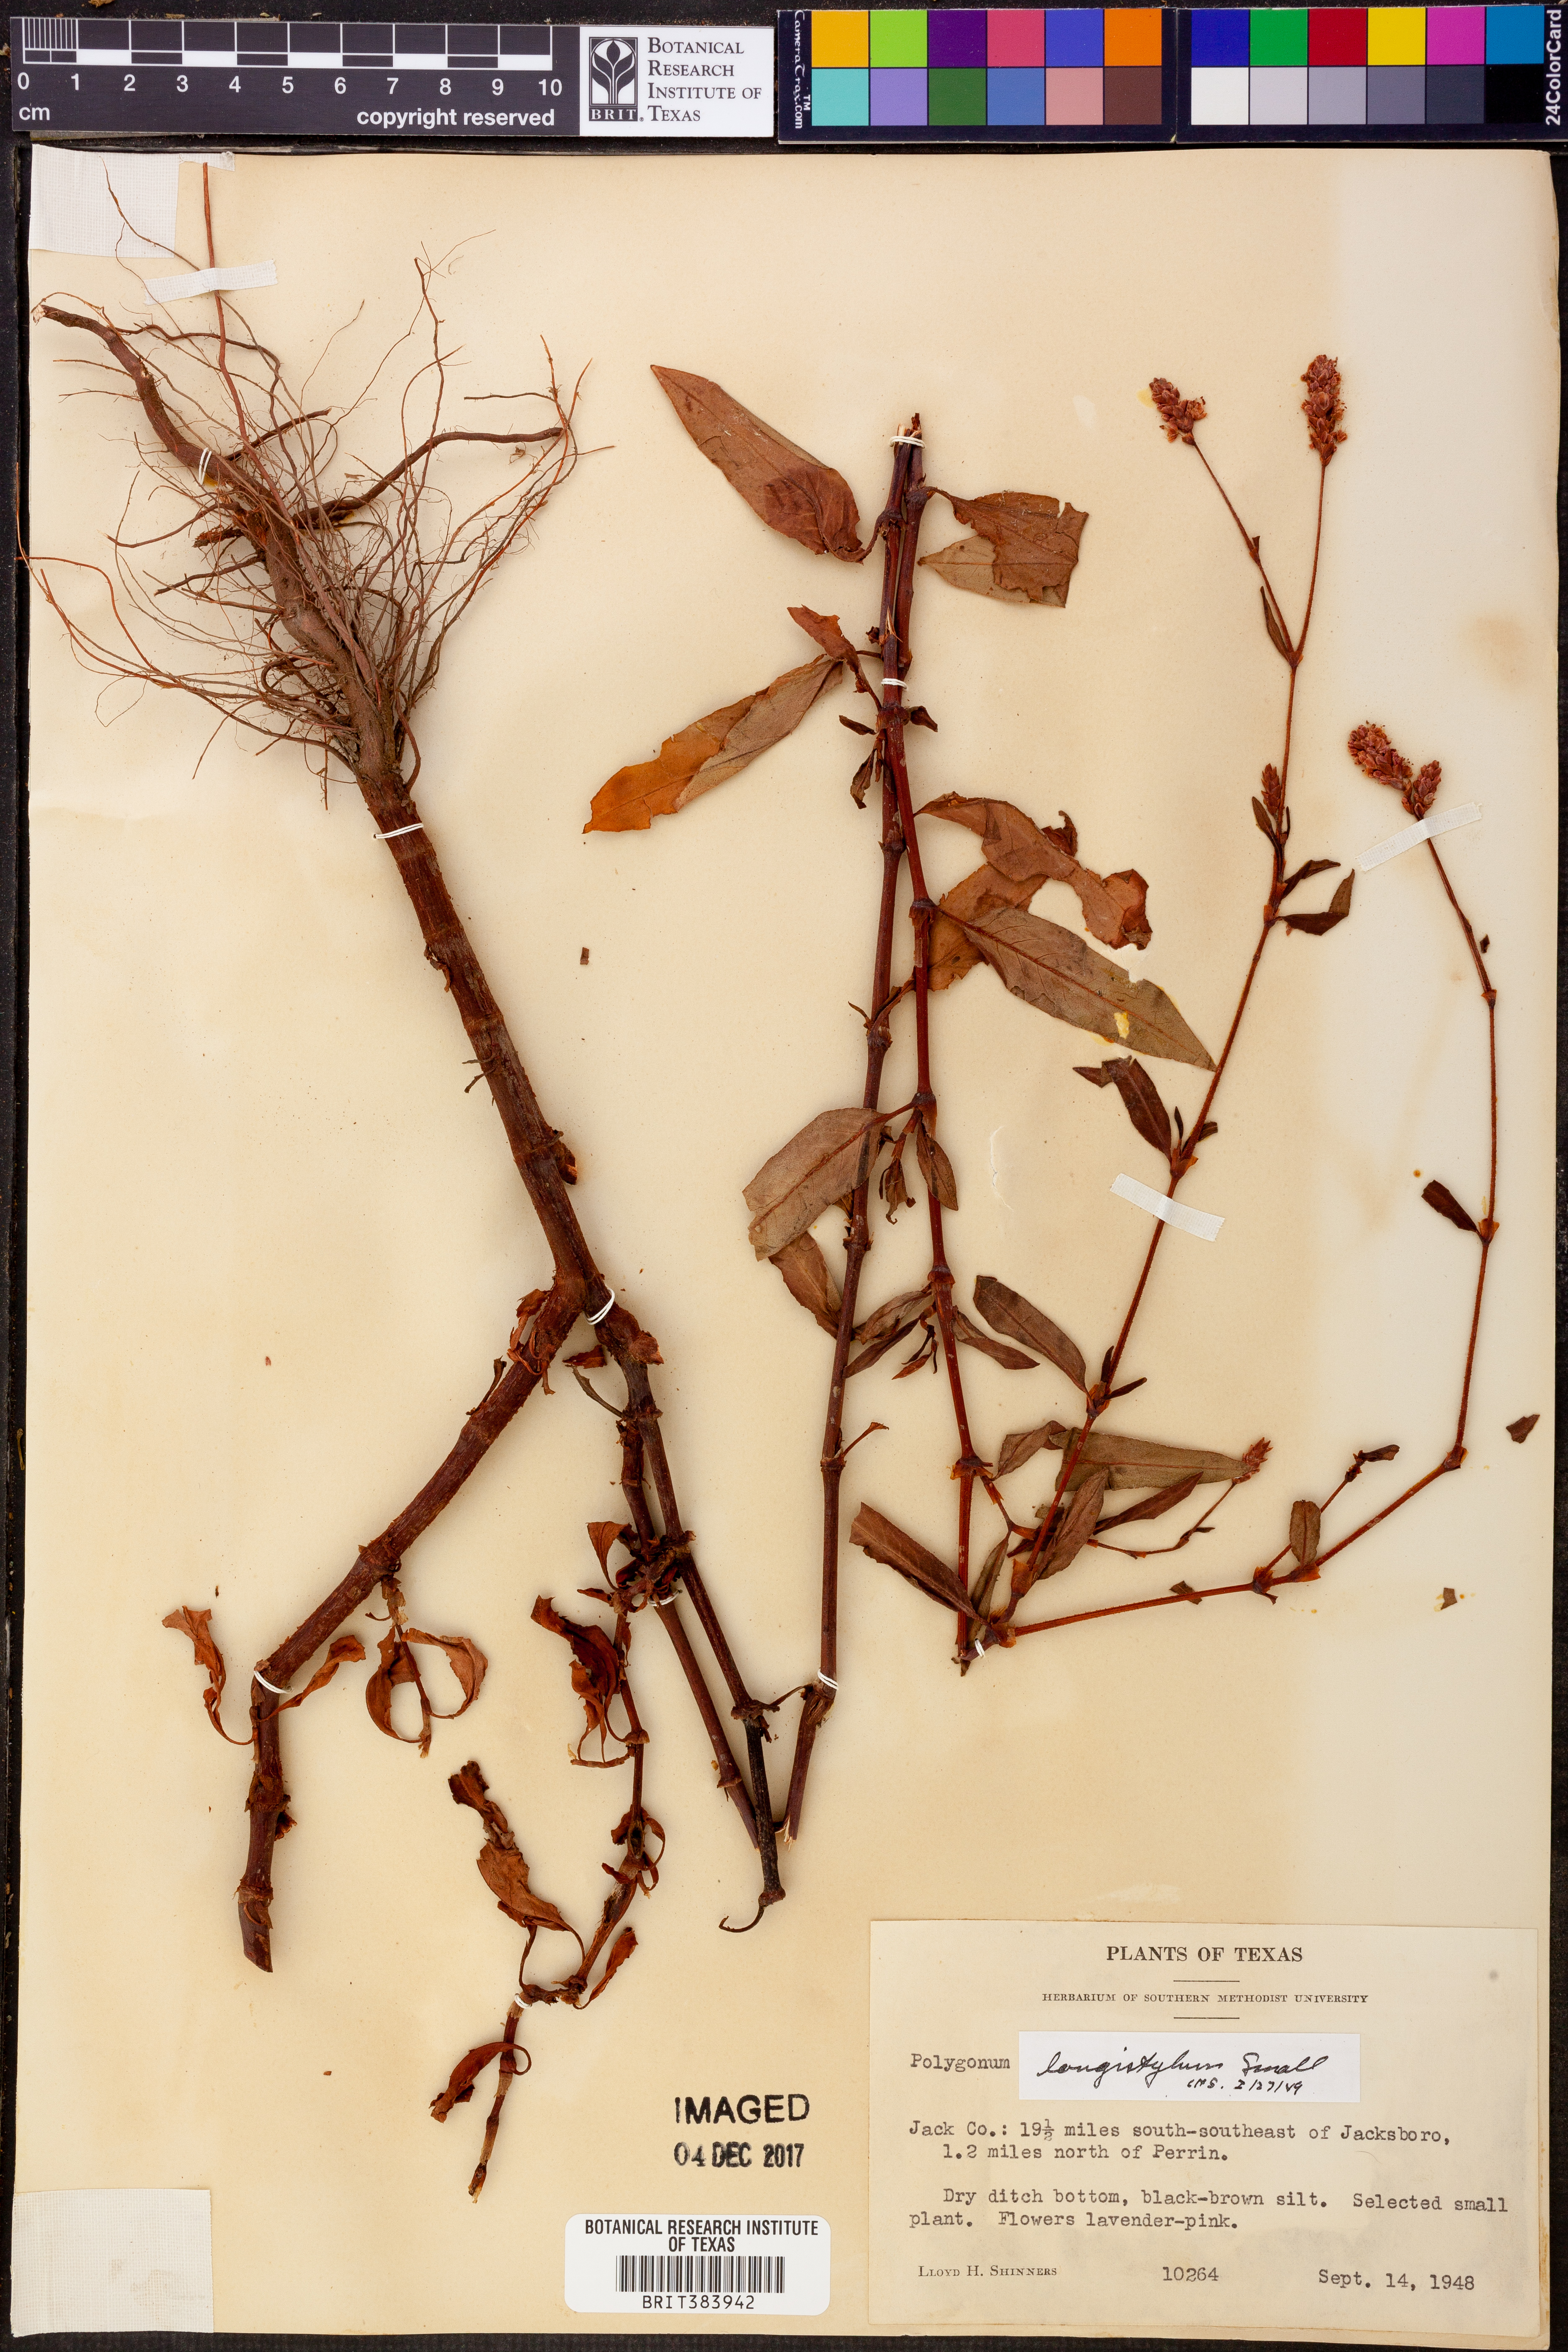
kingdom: Plantae
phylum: Tracheophyta
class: Magnoliopsida
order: Caryophyllales
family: Polygonaceae
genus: Persicaria
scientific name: Persicaria bicornis
